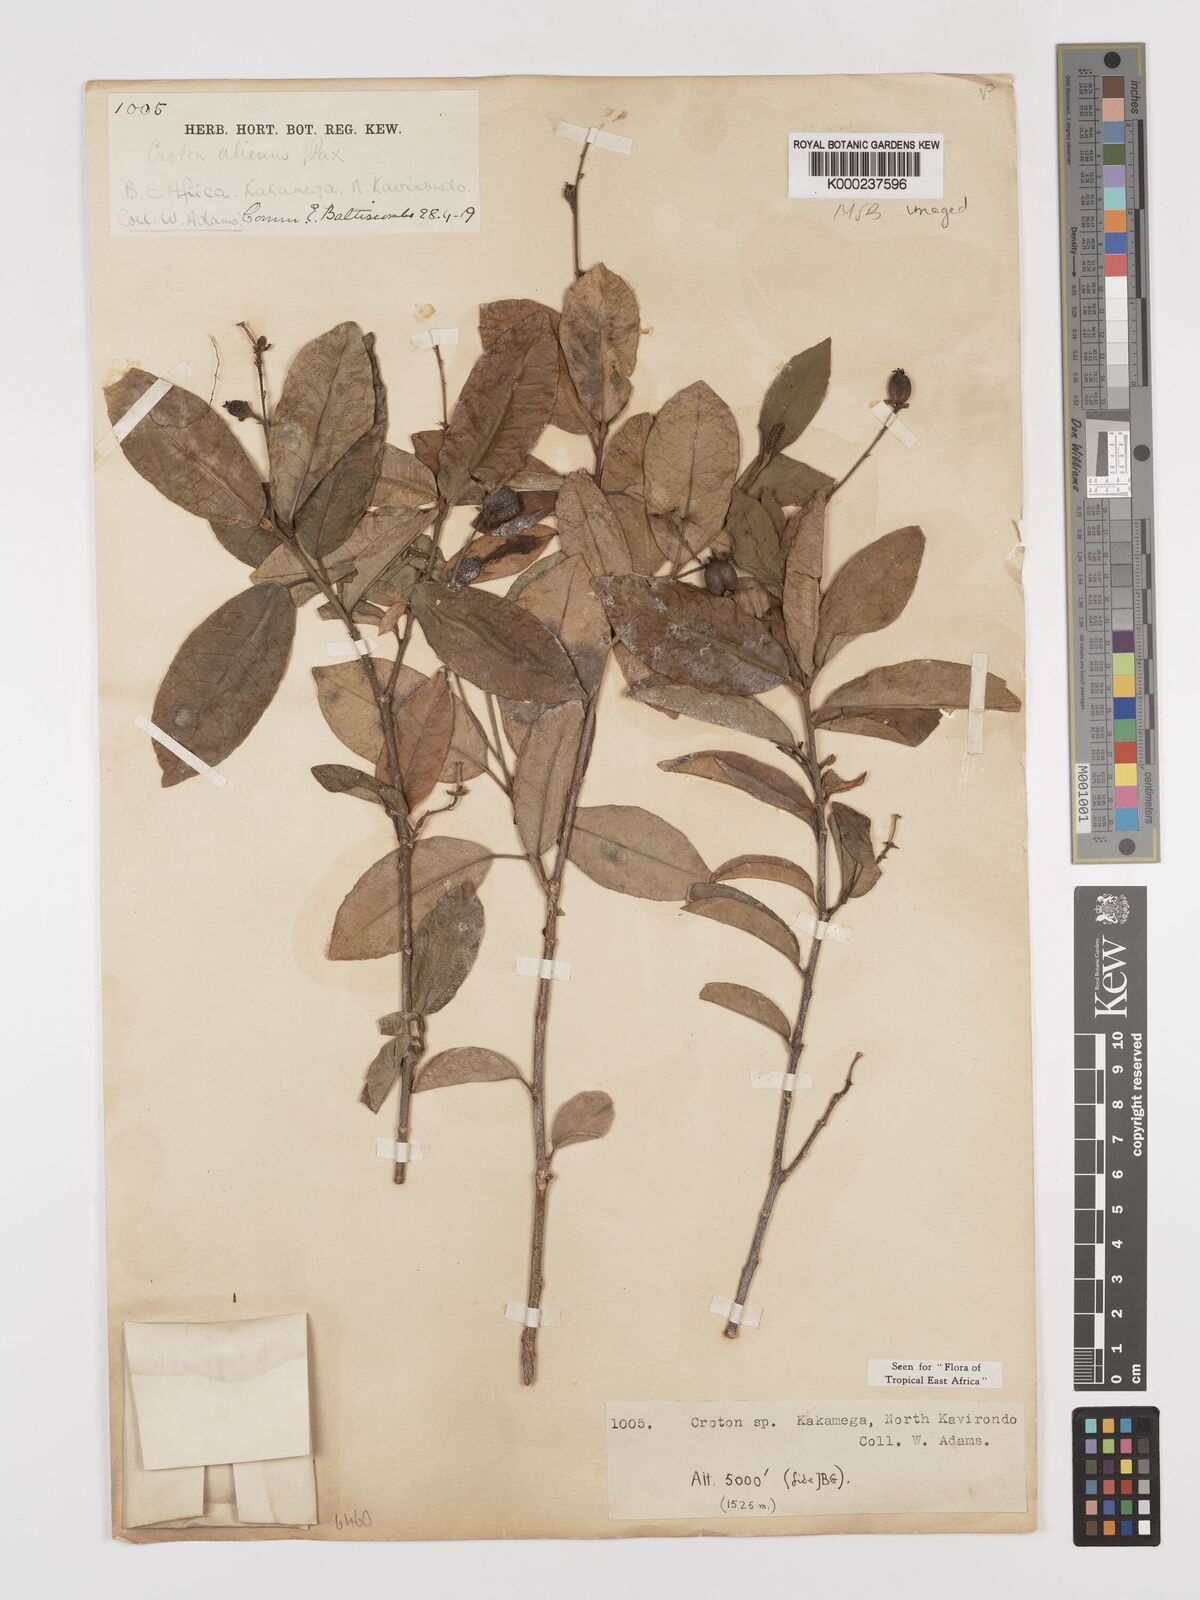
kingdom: Plantae
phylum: Tracheophyta
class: Magnoliopsida
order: Malpighiales
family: Euphorbiaceae
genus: Croton
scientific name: Croton alienus
